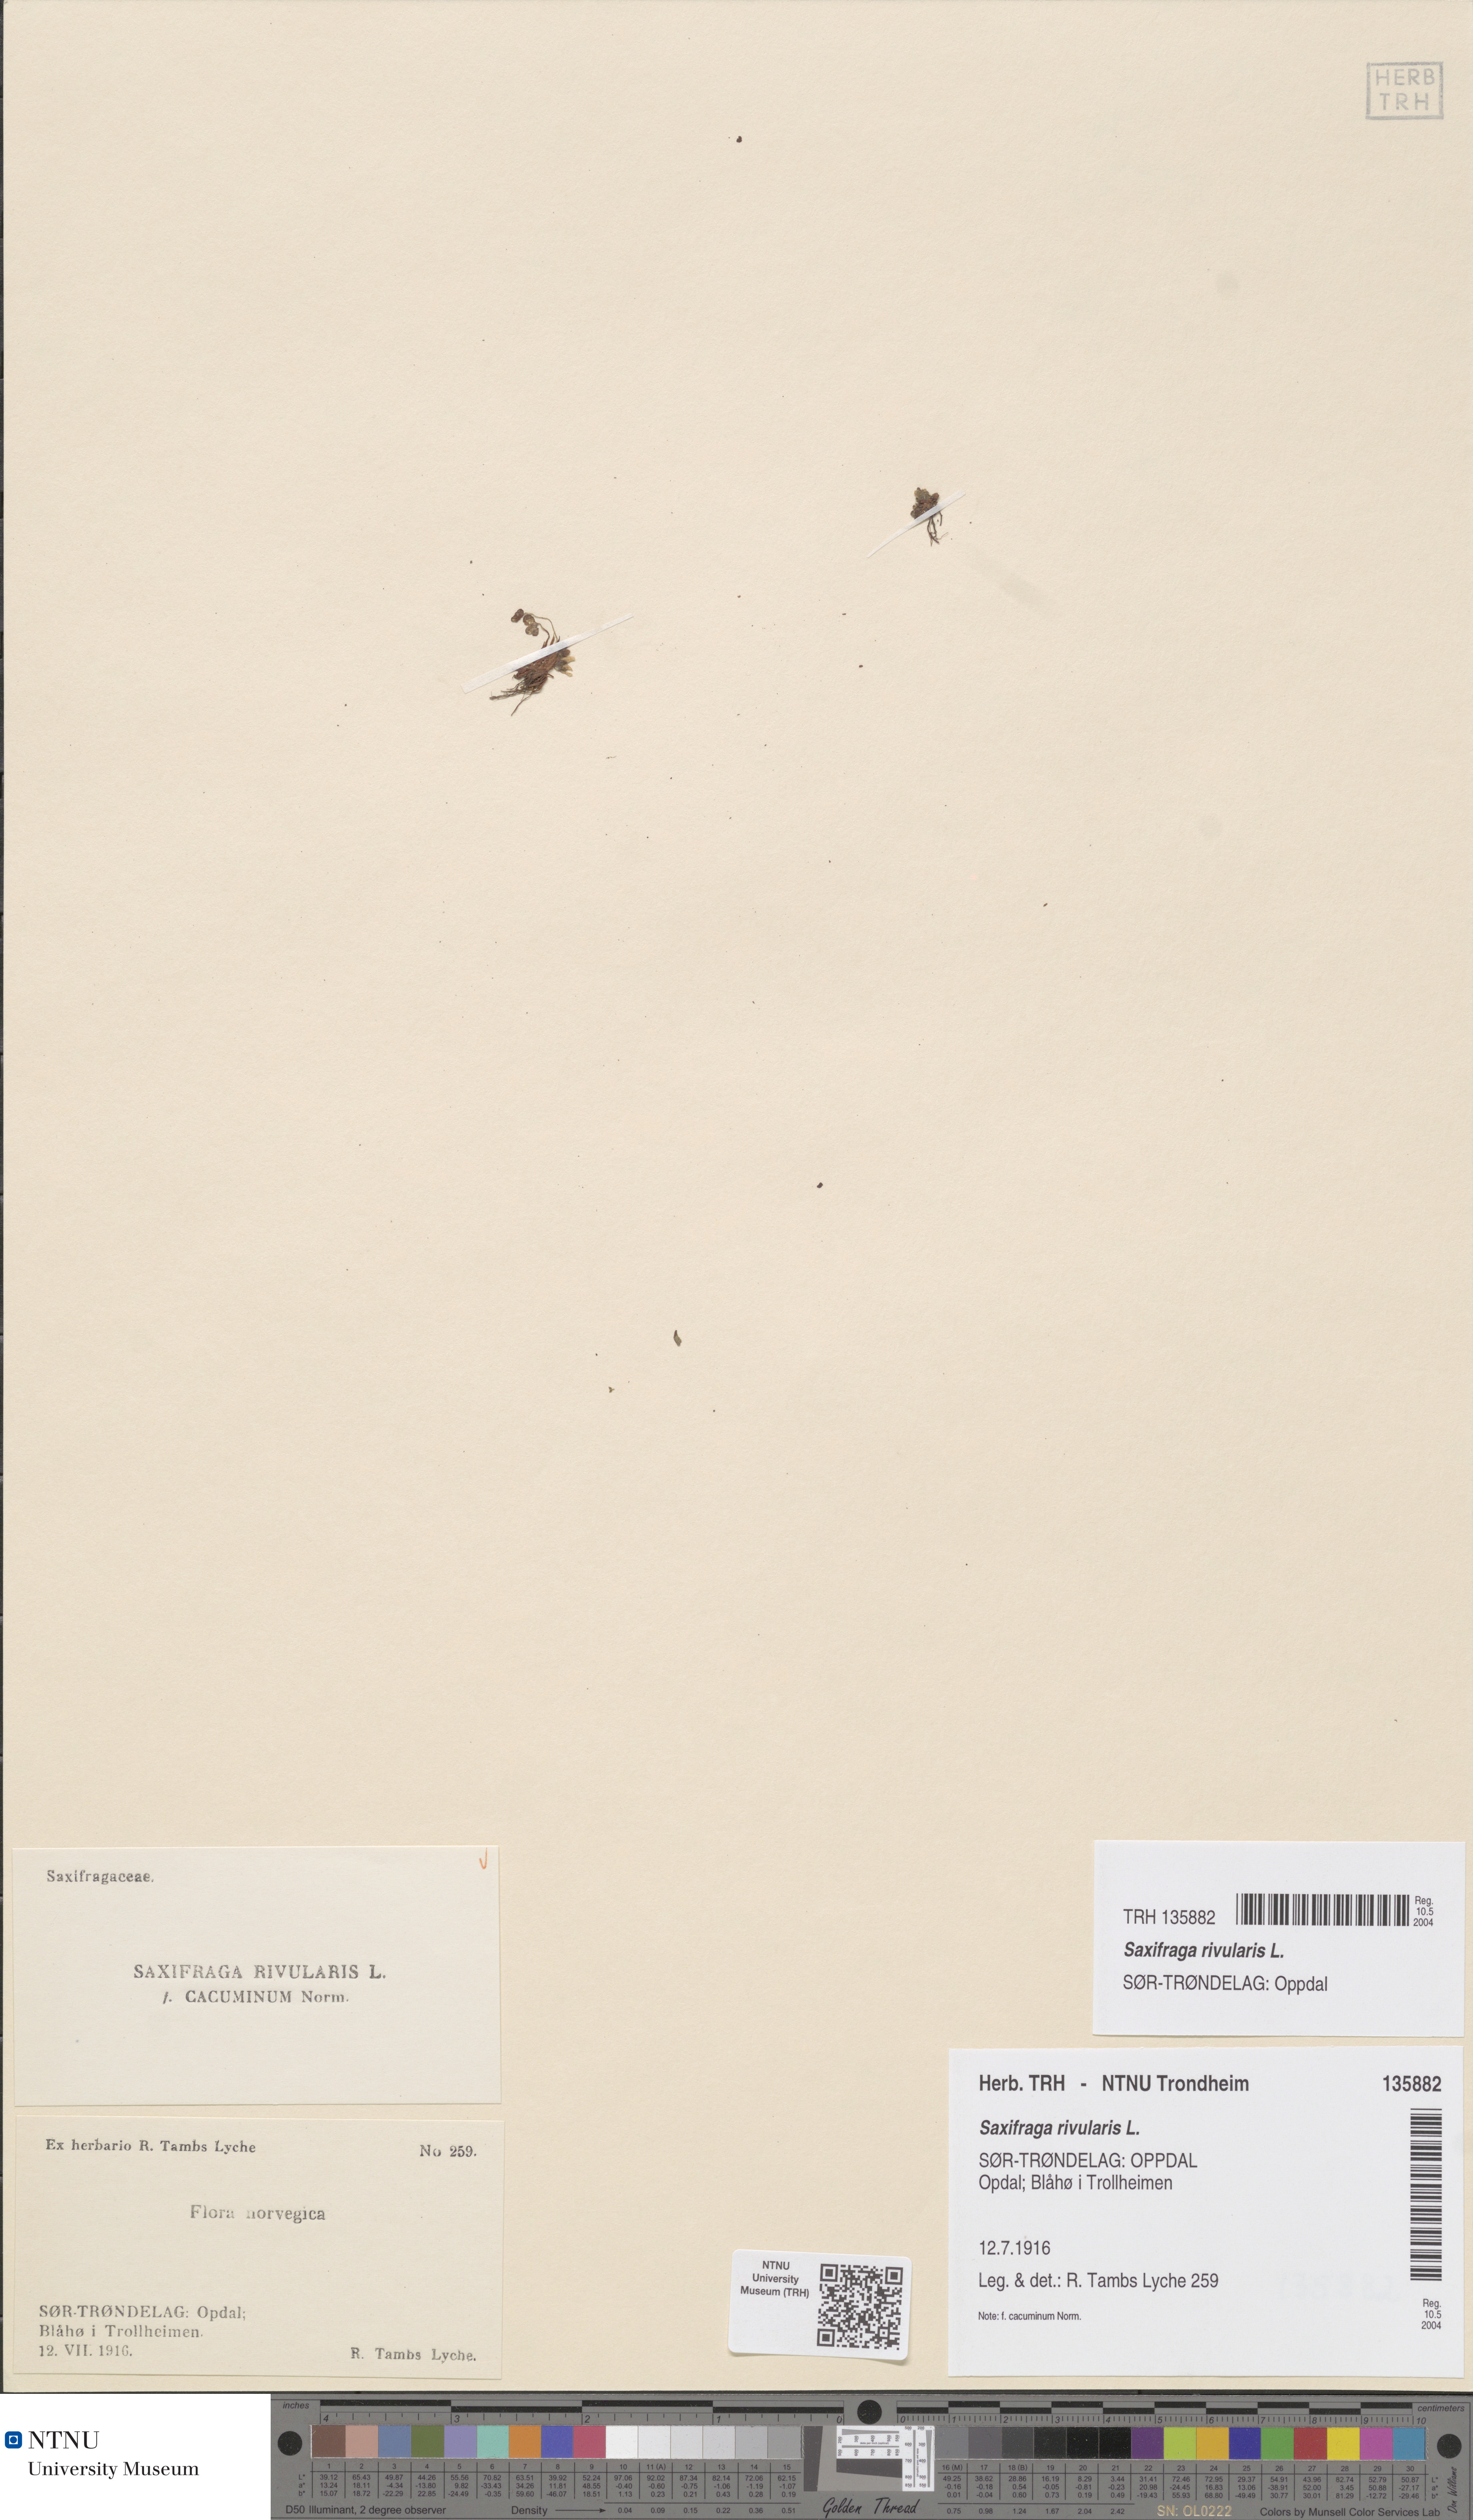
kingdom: Plantae
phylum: Tracheophyta
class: Magnoliopsida
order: Saxifragales
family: Saxifragaceae
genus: Saxifraga
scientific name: Saxifraga rivularis
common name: Highland saxifrage
